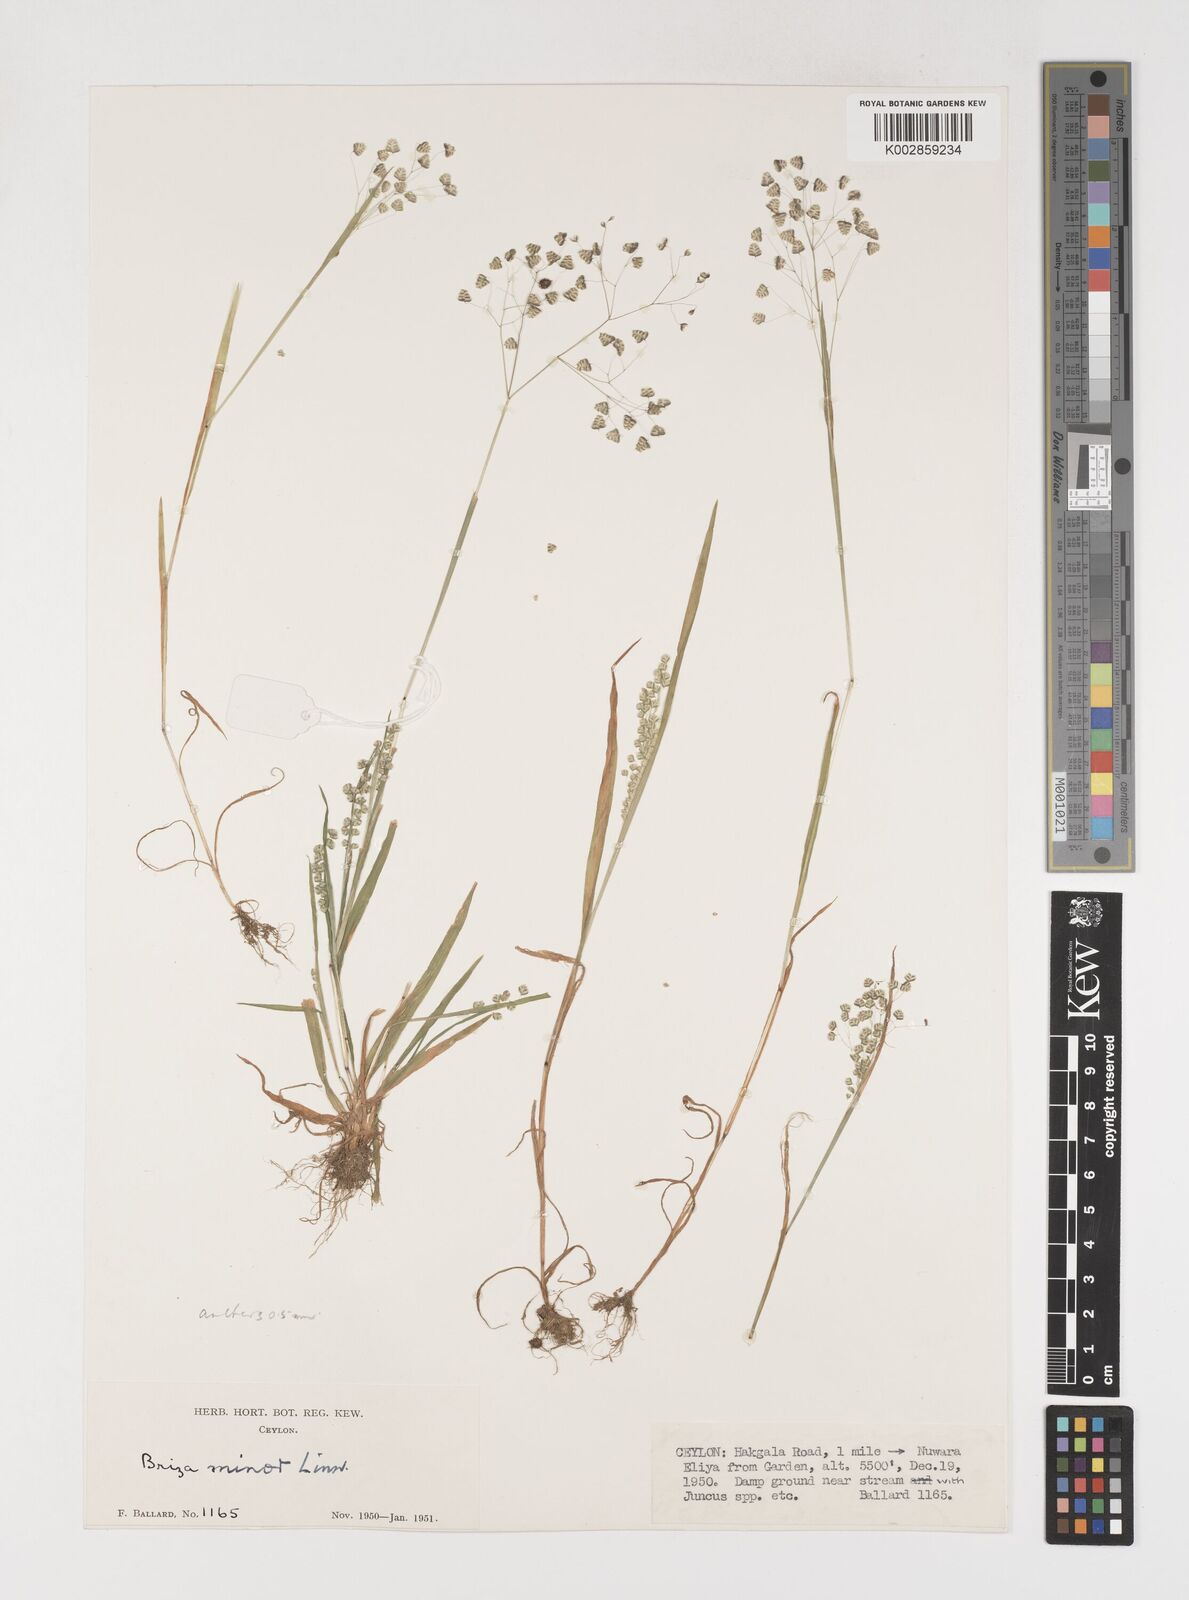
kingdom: Plantae
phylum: Tracheophyta
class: Liliopsida
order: Poales
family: Poaceae
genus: Briza
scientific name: Briza minor
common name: Lesser quaking-grass
